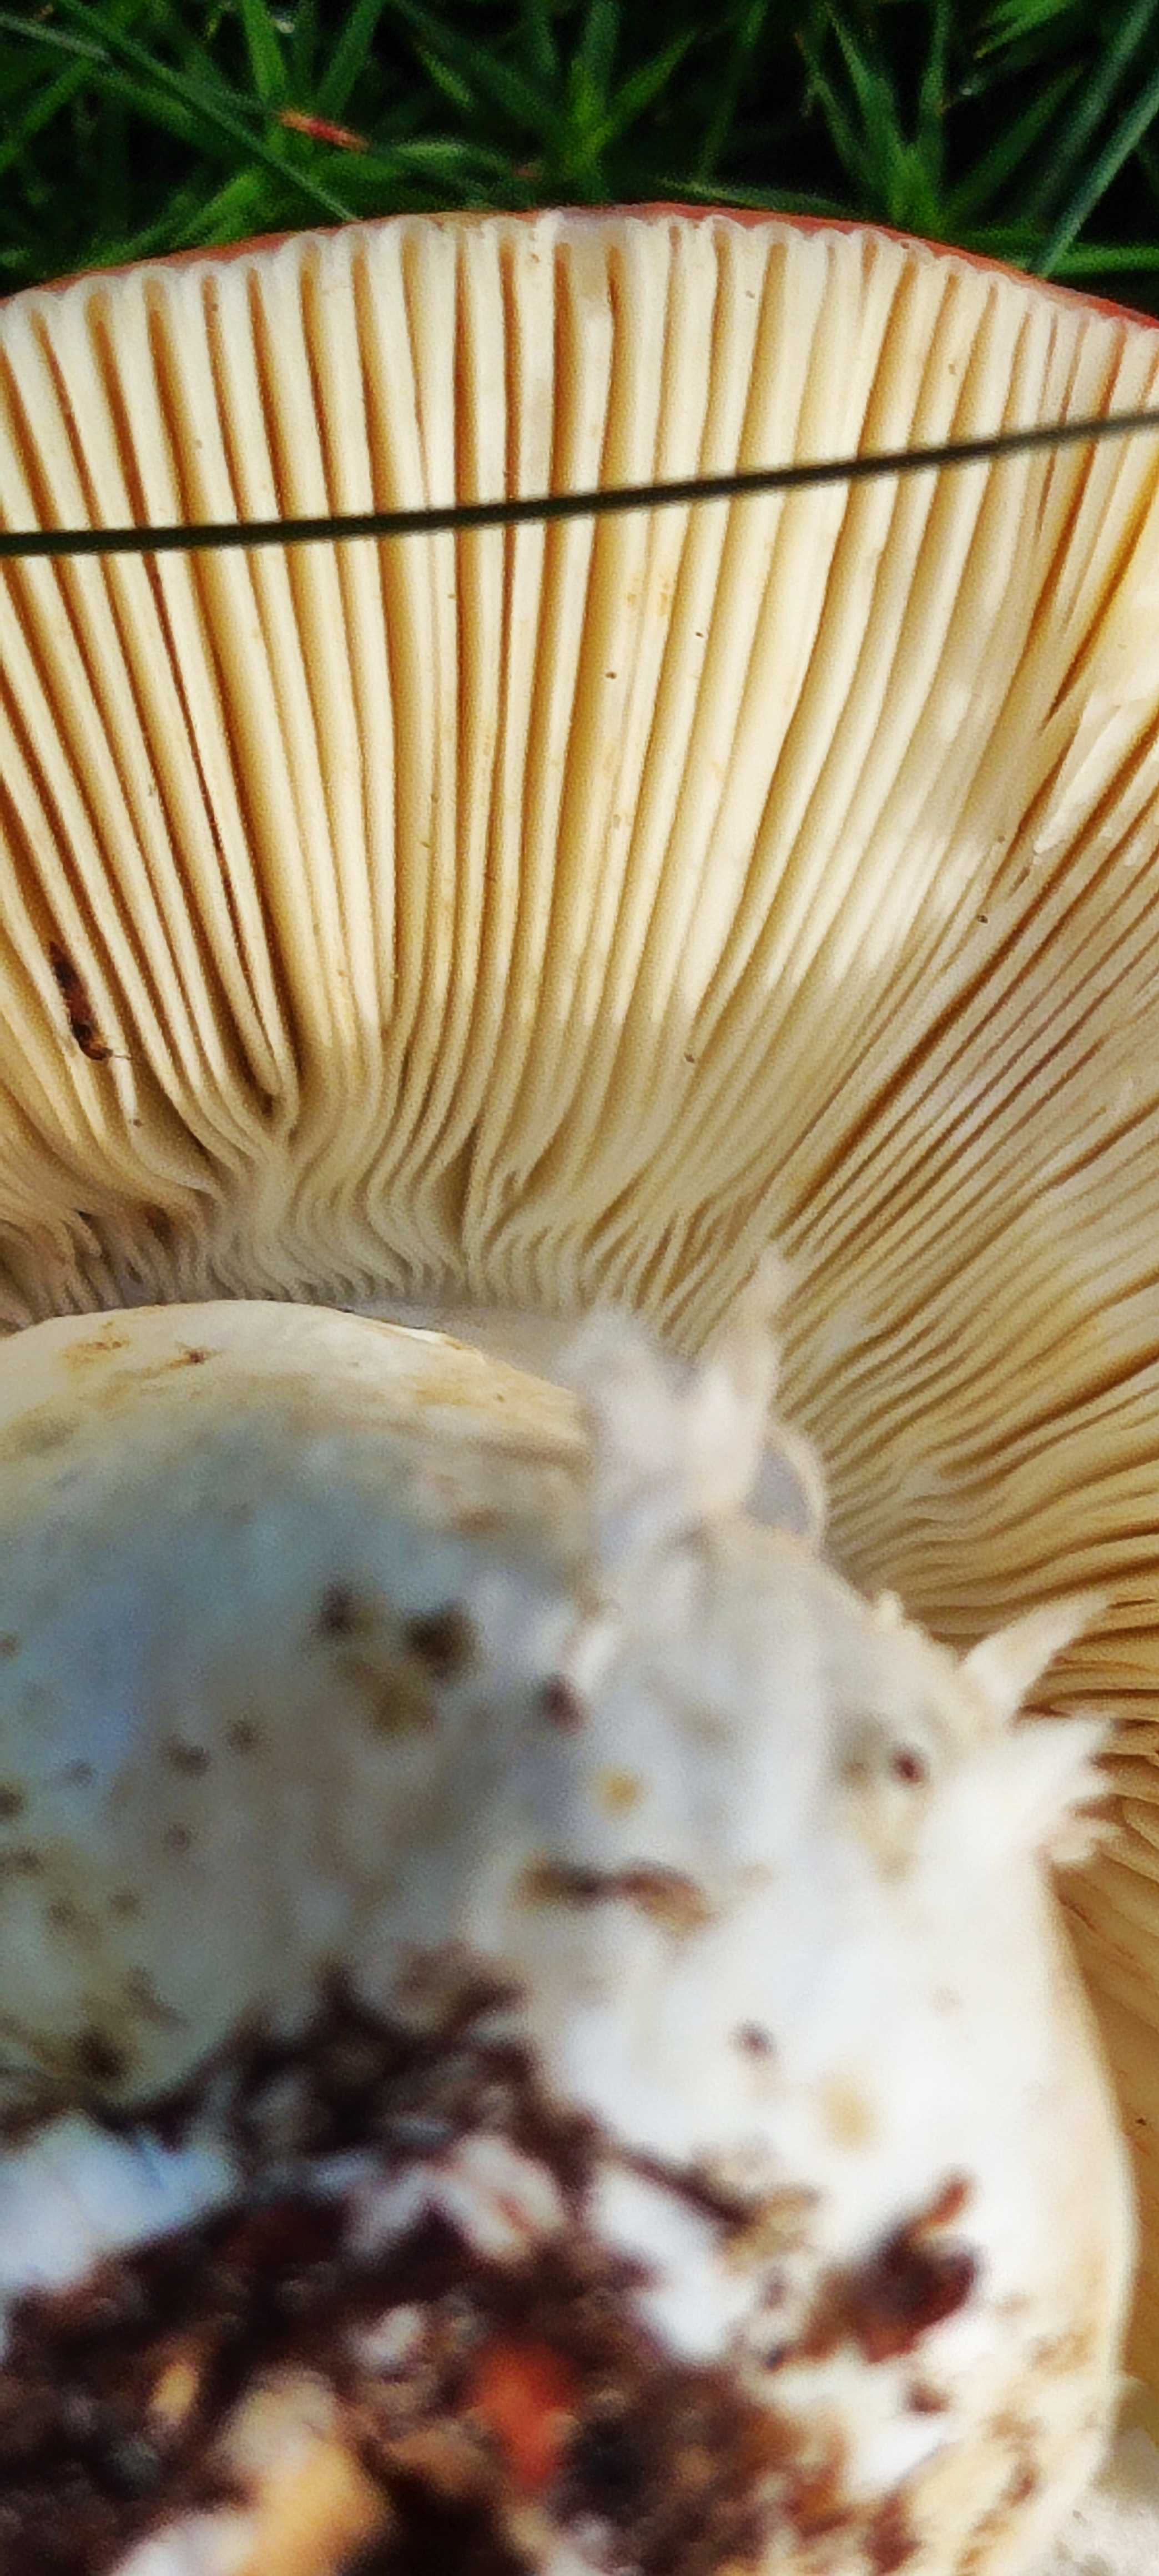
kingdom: Fungi
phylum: Basidiomycota
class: Agaricomycetes
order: Russulales
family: Russulaceae
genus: Russula
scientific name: Russula
